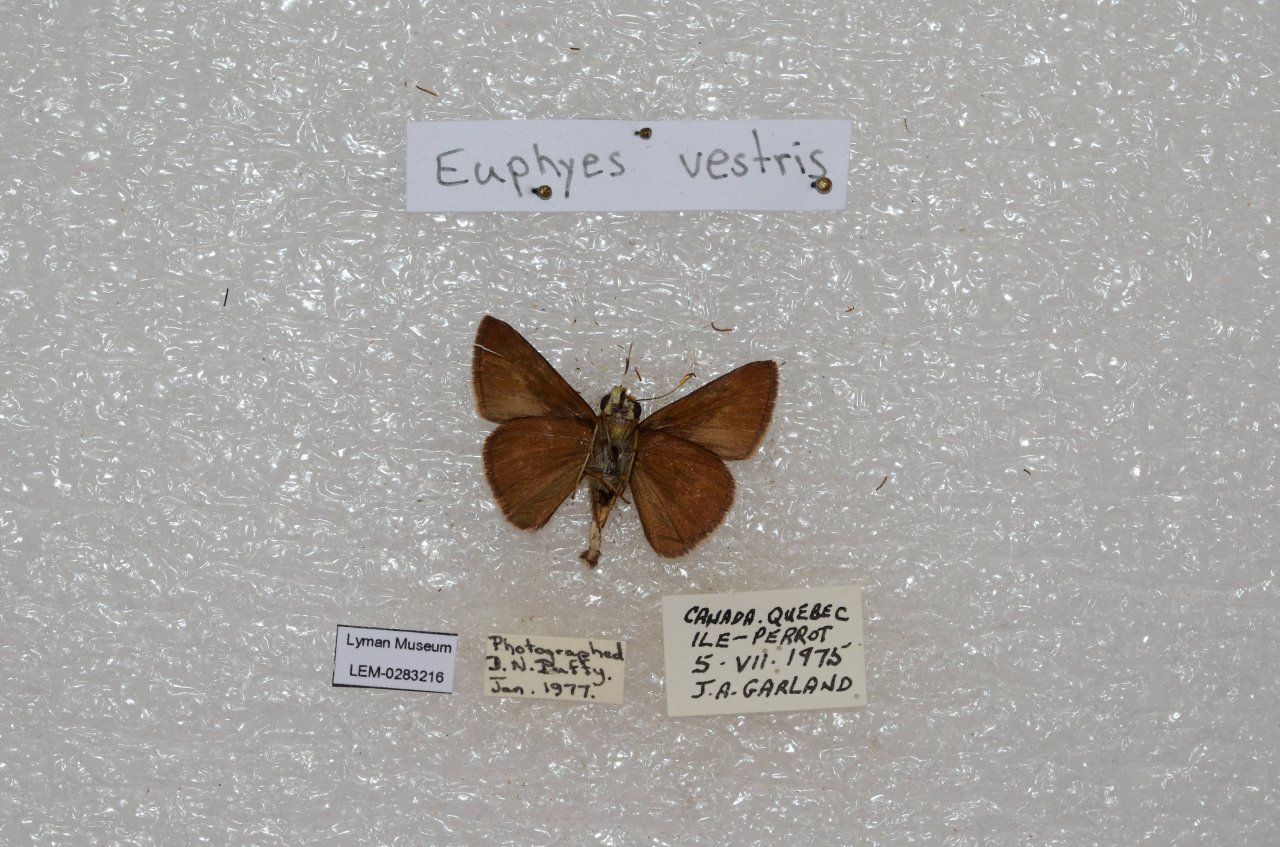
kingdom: Animalia
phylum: Arthropoda
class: Insecta
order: Lepidoptera
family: Hesperiidae
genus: Euphyes
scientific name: Euphyes vestris
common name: Dun Skipper
